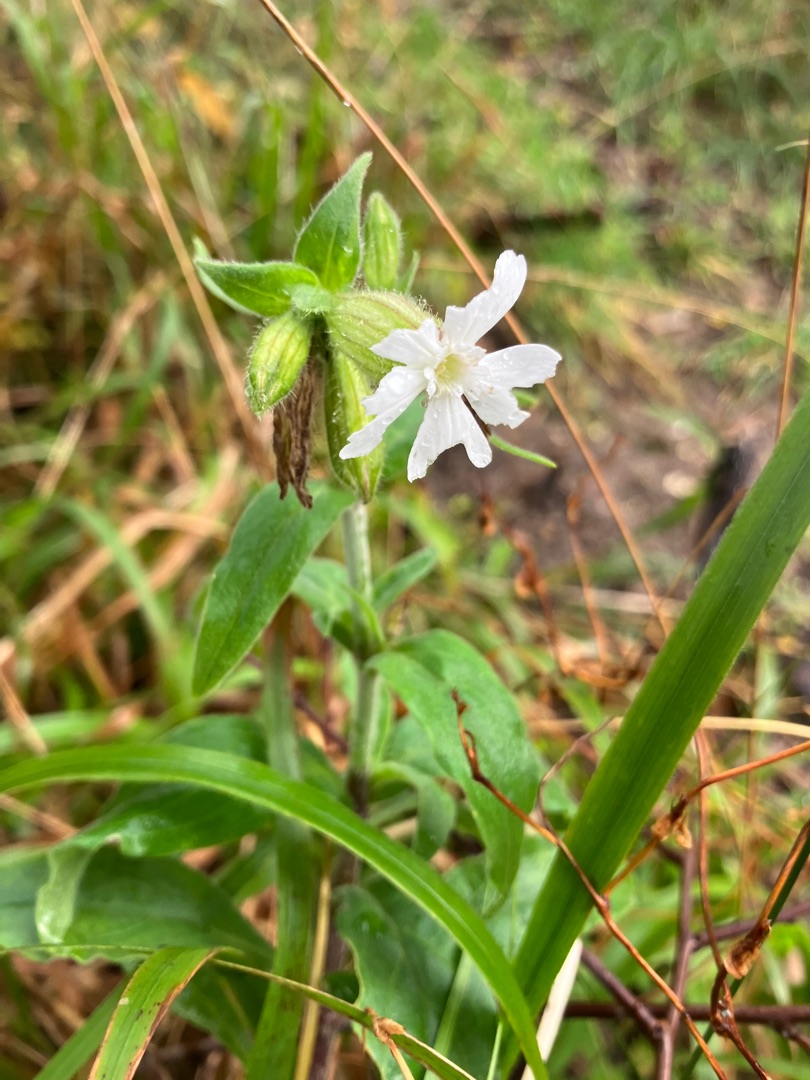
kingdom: Plantae
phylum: Tracheophyta
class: Magnoliopsida
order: Caryophyllales
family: Caryophyllaceae
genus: Silene
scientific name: Silene latifolia
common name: Aftenpragtstjerne
